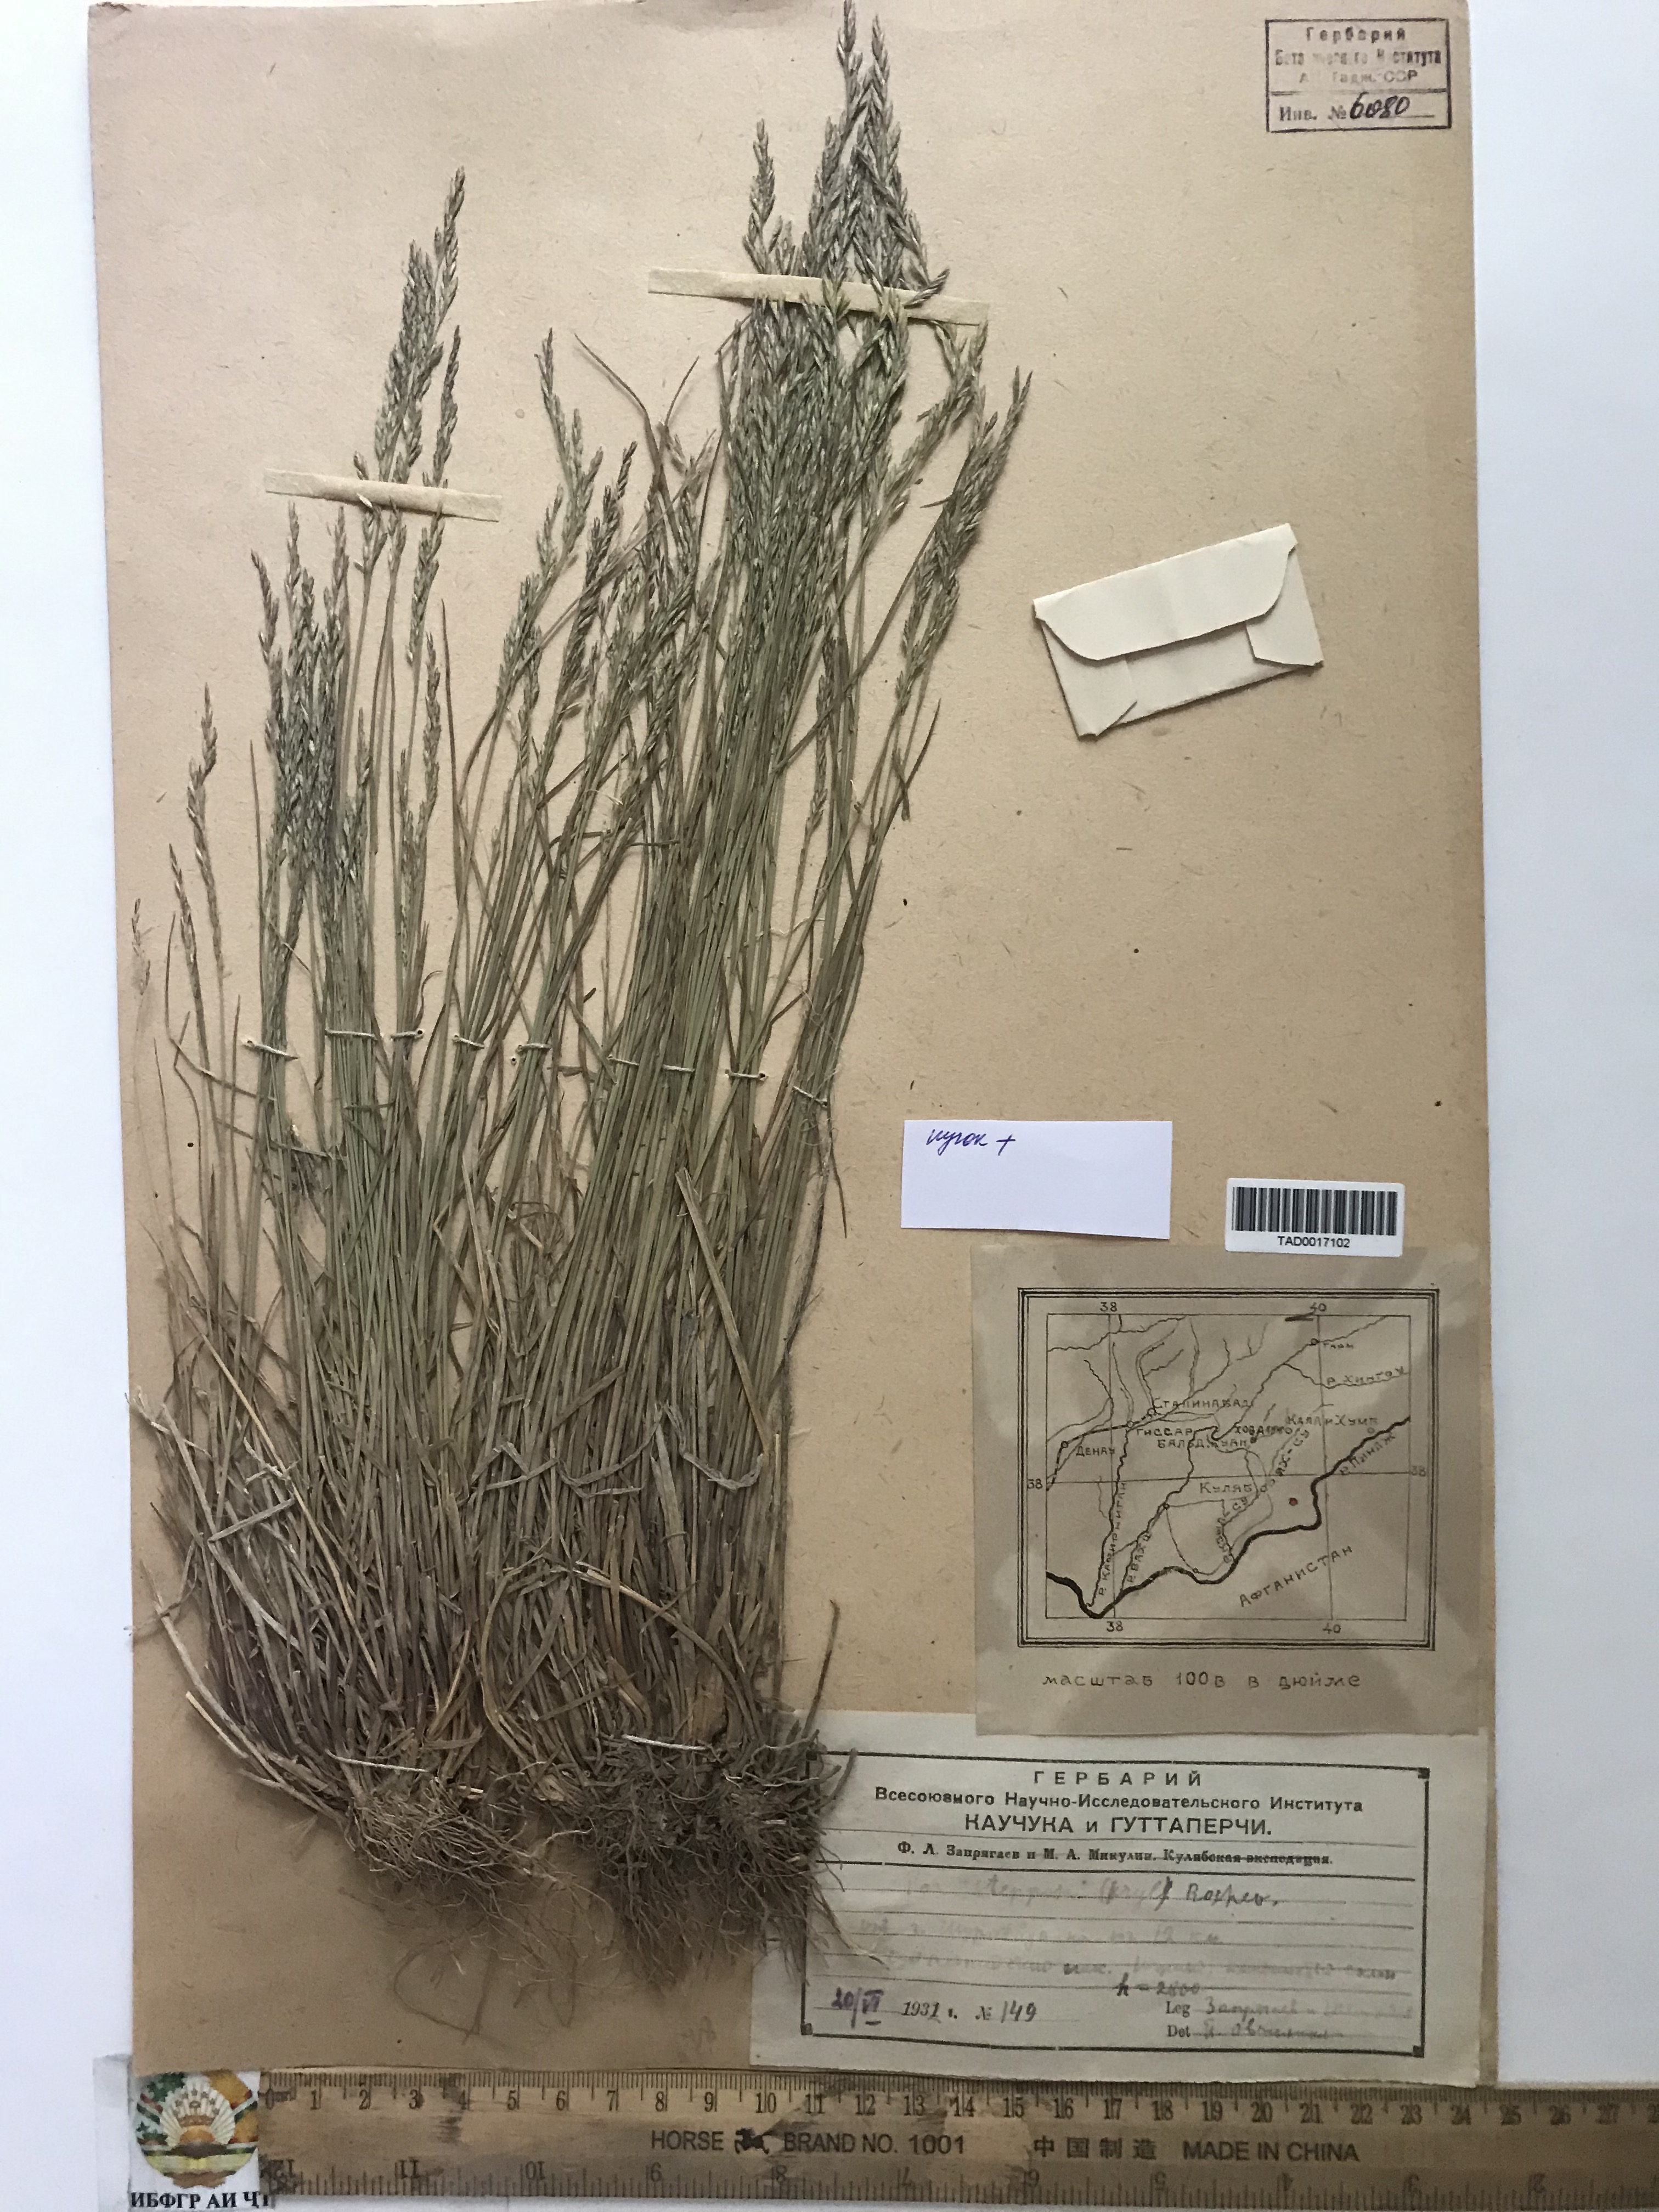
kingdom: Plantae
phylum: Tracheophyta
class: Liliopsida
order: Poales
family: Poaceae
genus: Poa
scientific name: Poa urssulensis
